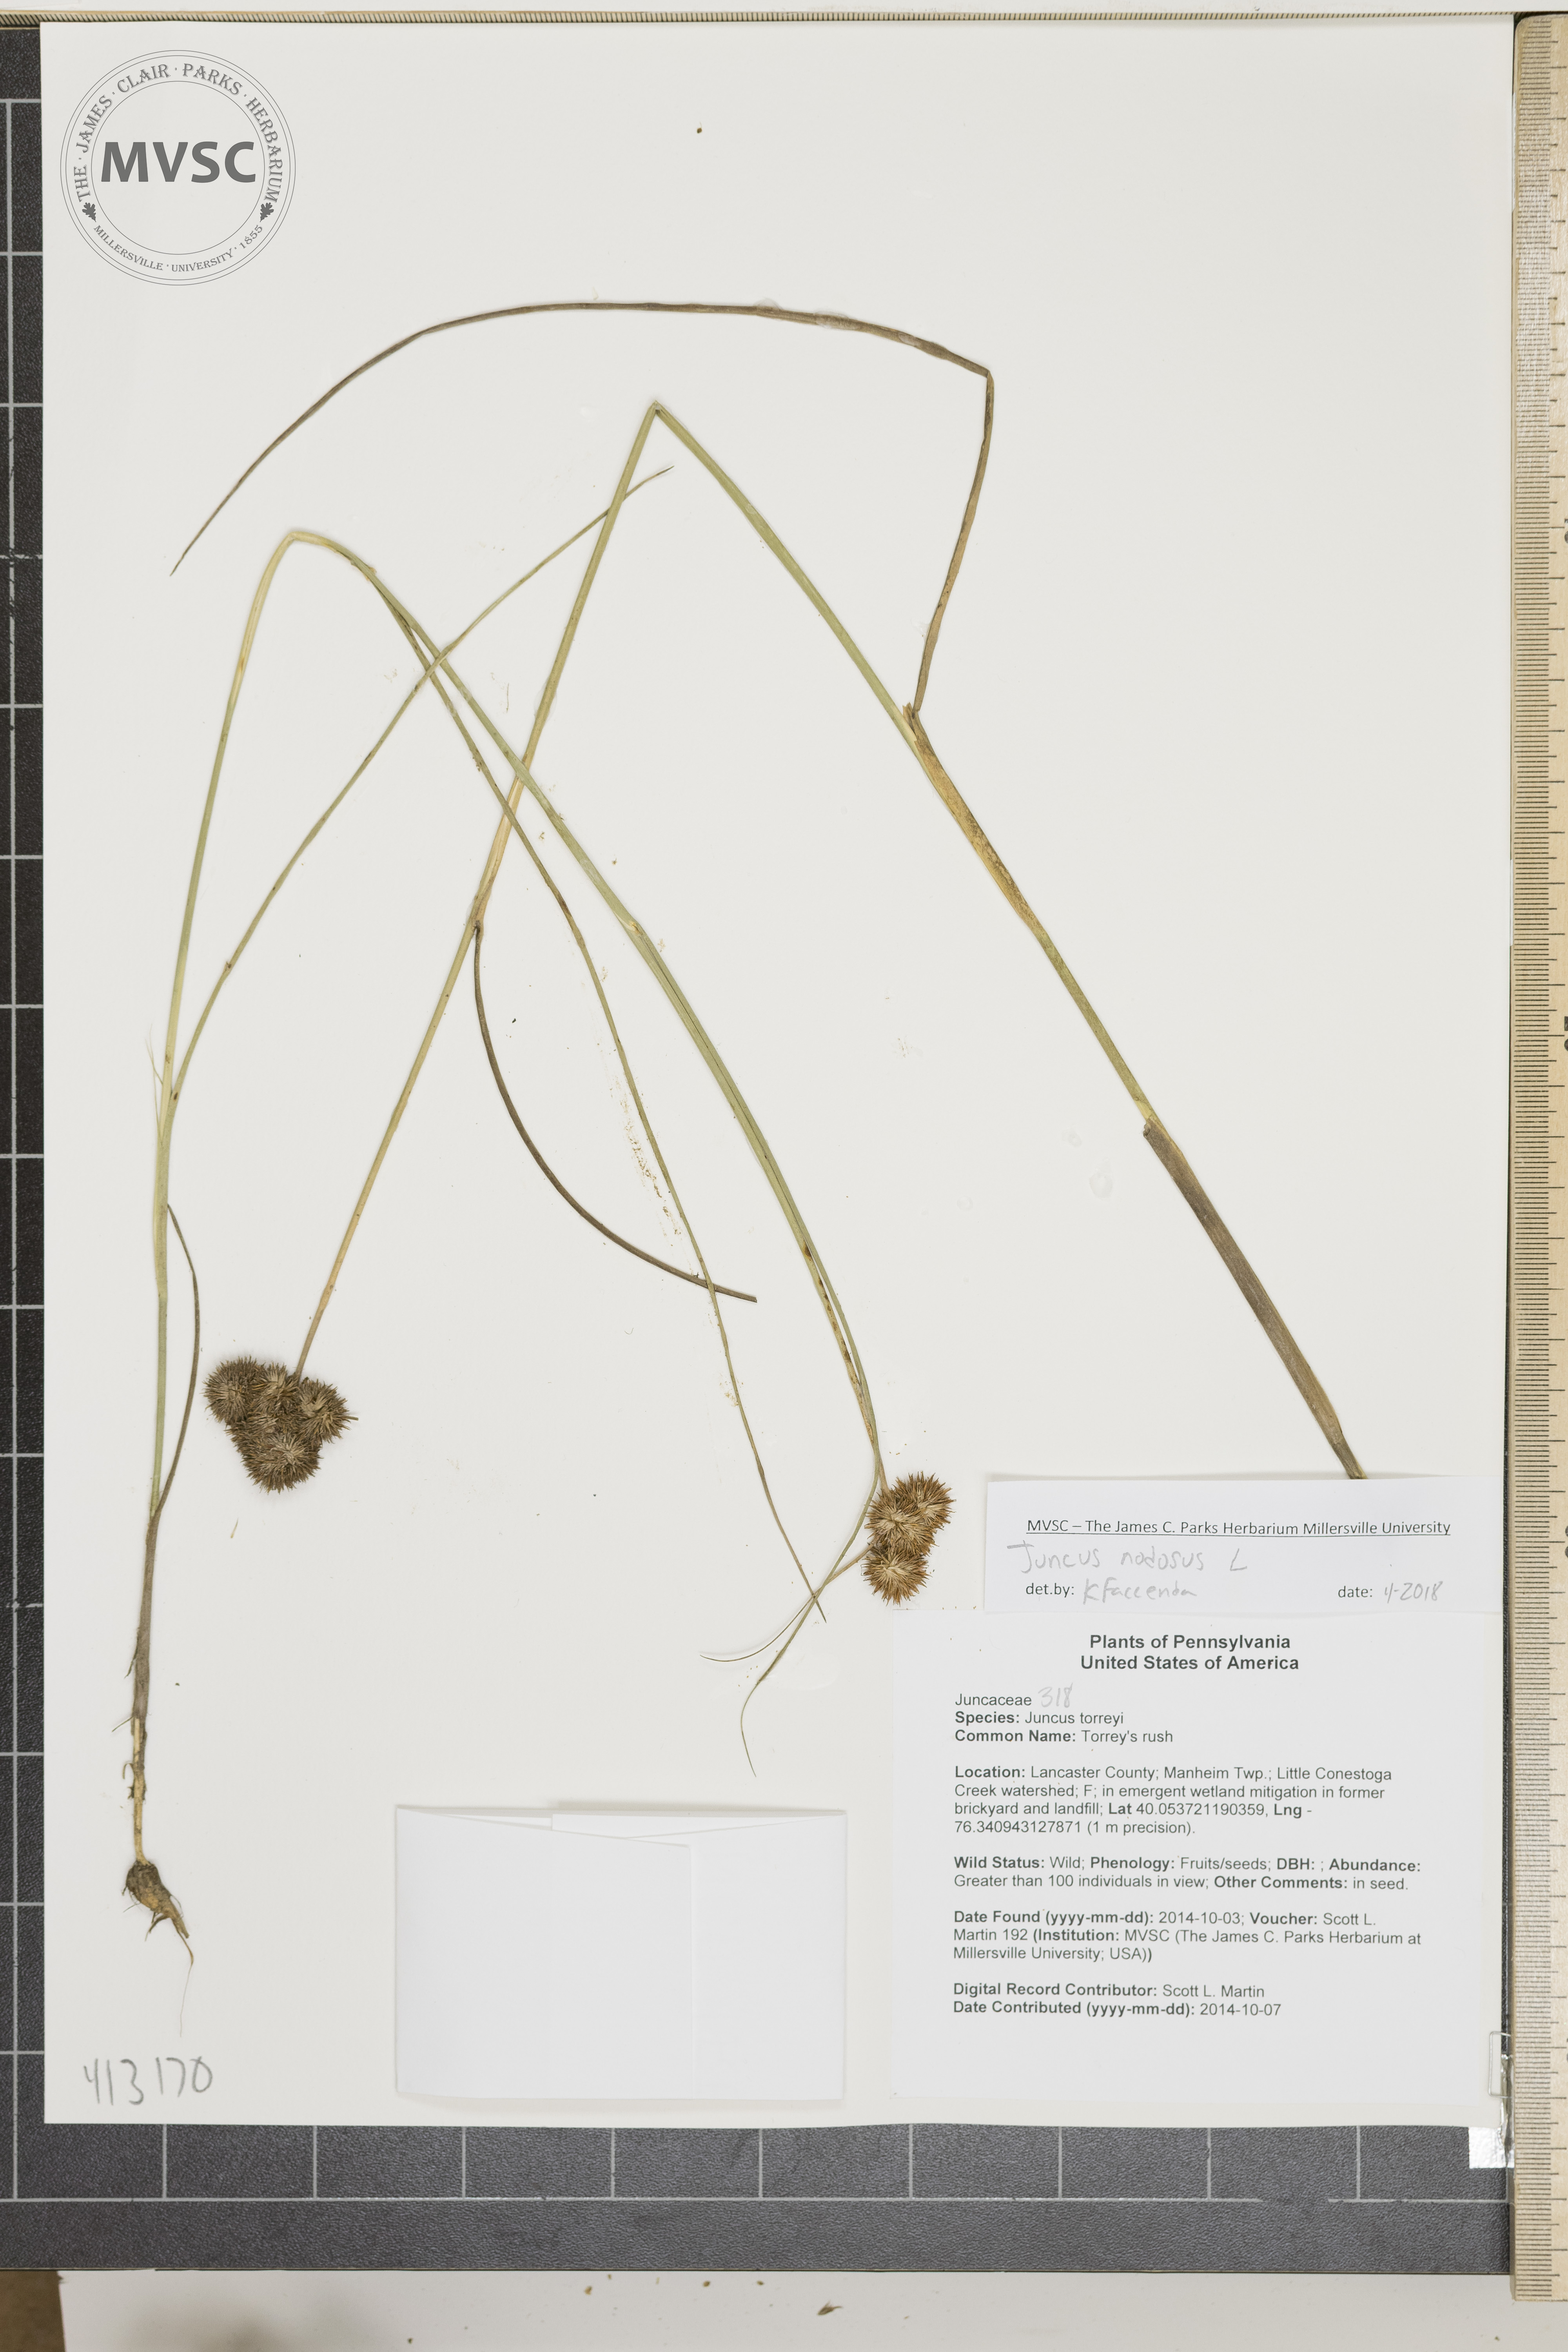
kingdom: Plantae
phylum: Tracheophyta
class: Liliopsida
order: Poales
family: Juncaceae
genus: Juncus
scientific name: Juncus nodosus
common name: Torrey's rush
